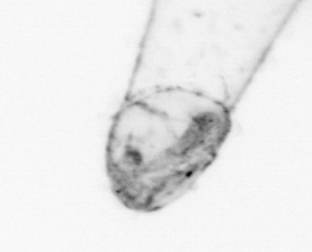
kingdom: Animalia
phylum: Chaetognatha
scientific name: Chaetognatha
